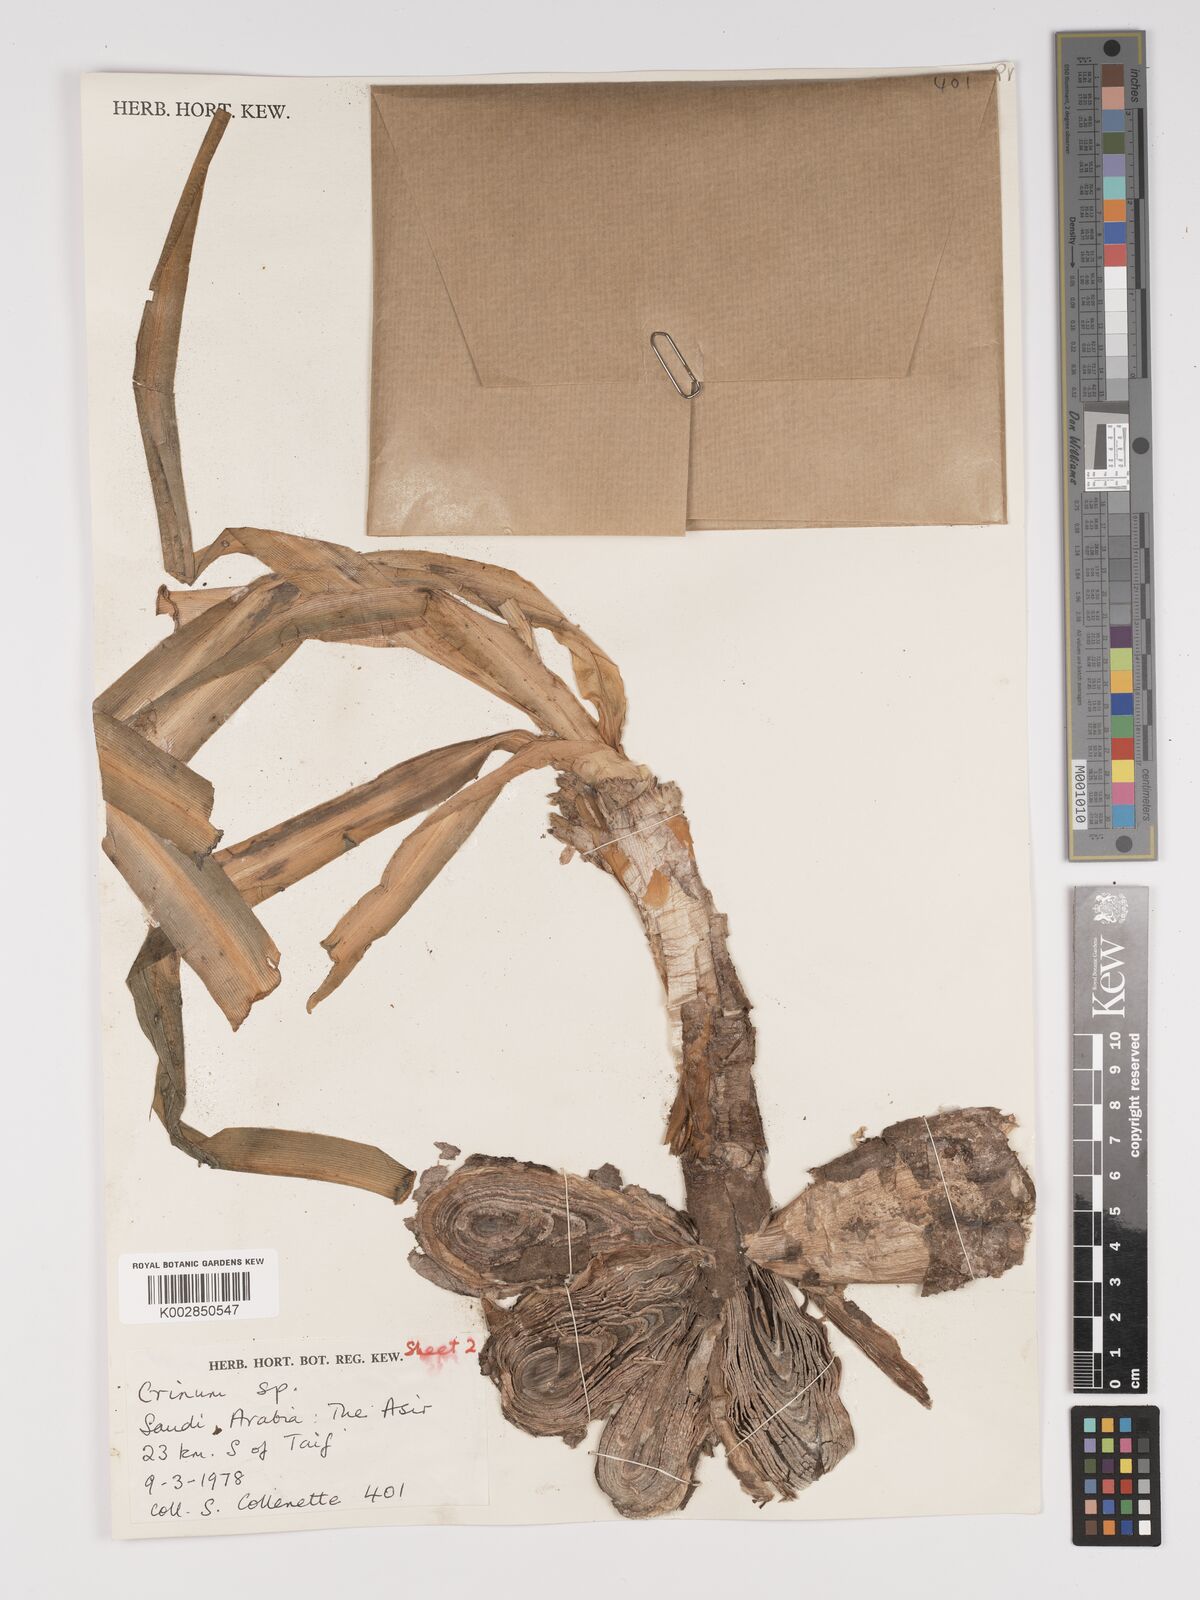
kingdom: Plantae
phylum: Tracheophyta
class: Liliopsida
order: Asparagales
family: Amaryllidaceae
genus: Crinum
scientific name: Crinum
